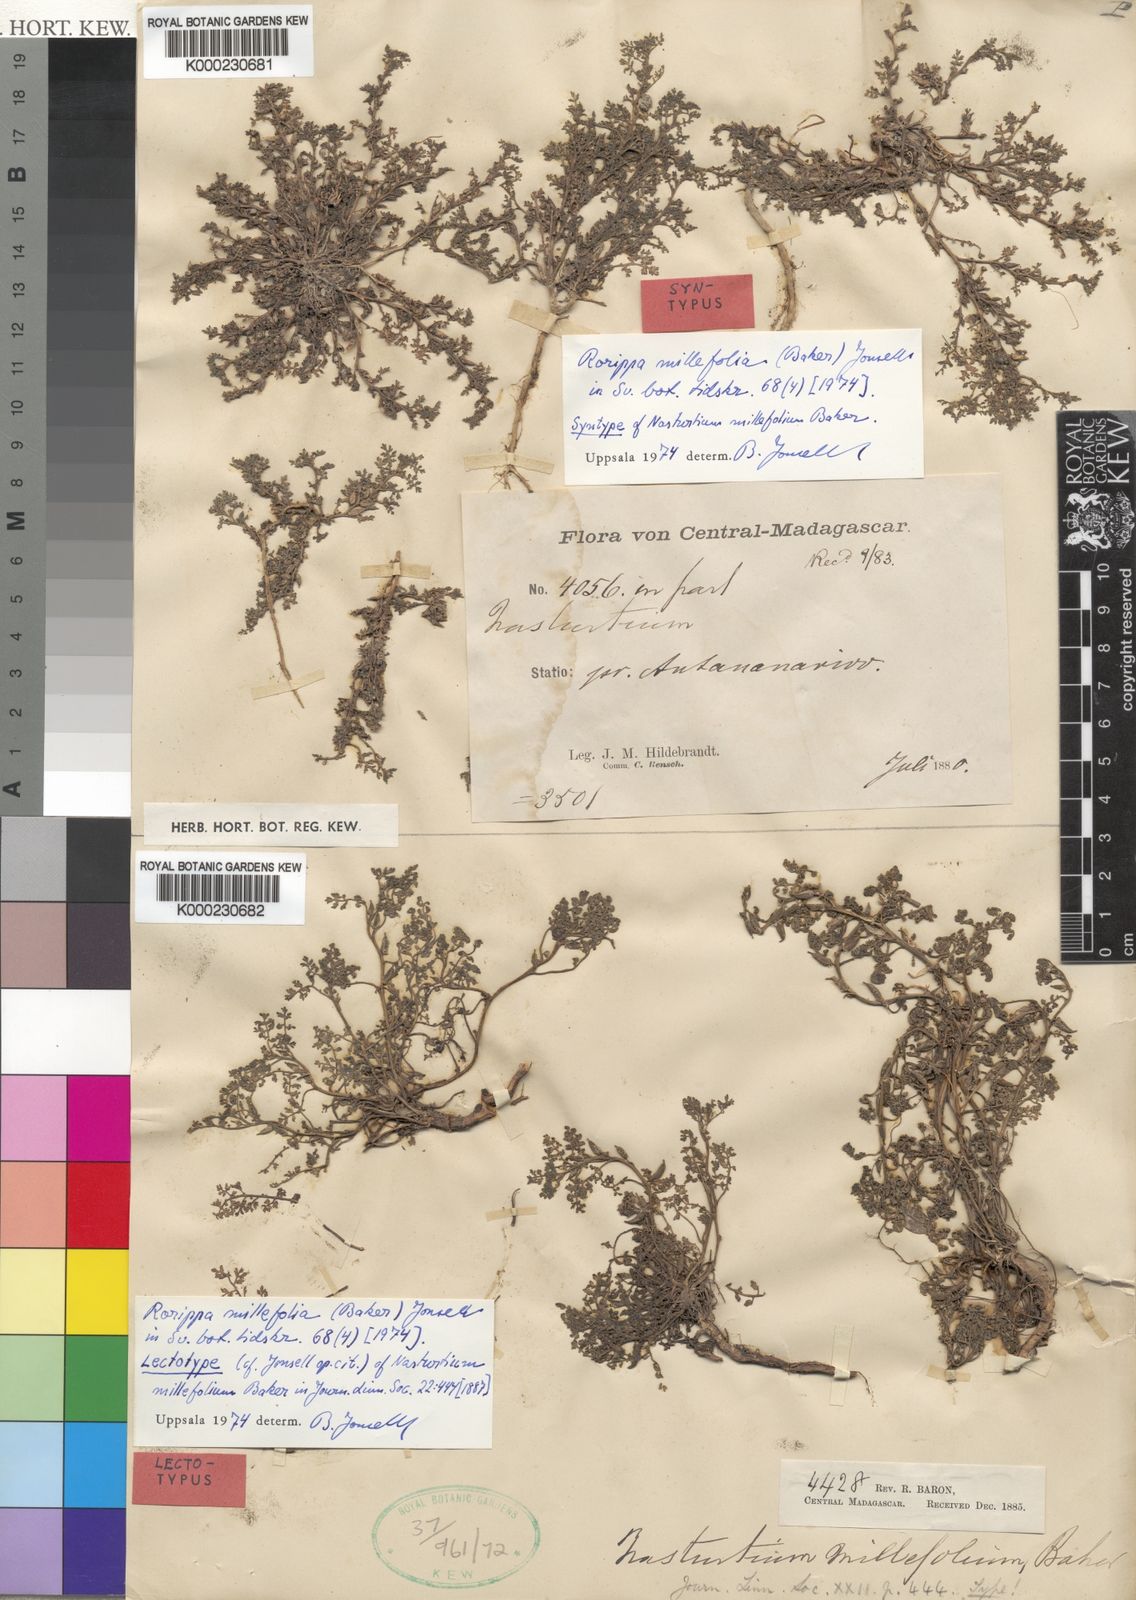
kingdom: Plantae
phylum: Tracheophyta
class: Magnoliopsida
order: Brassicales
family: Brassicaceae
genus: Rorippa
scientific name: Rorippa millefolia
